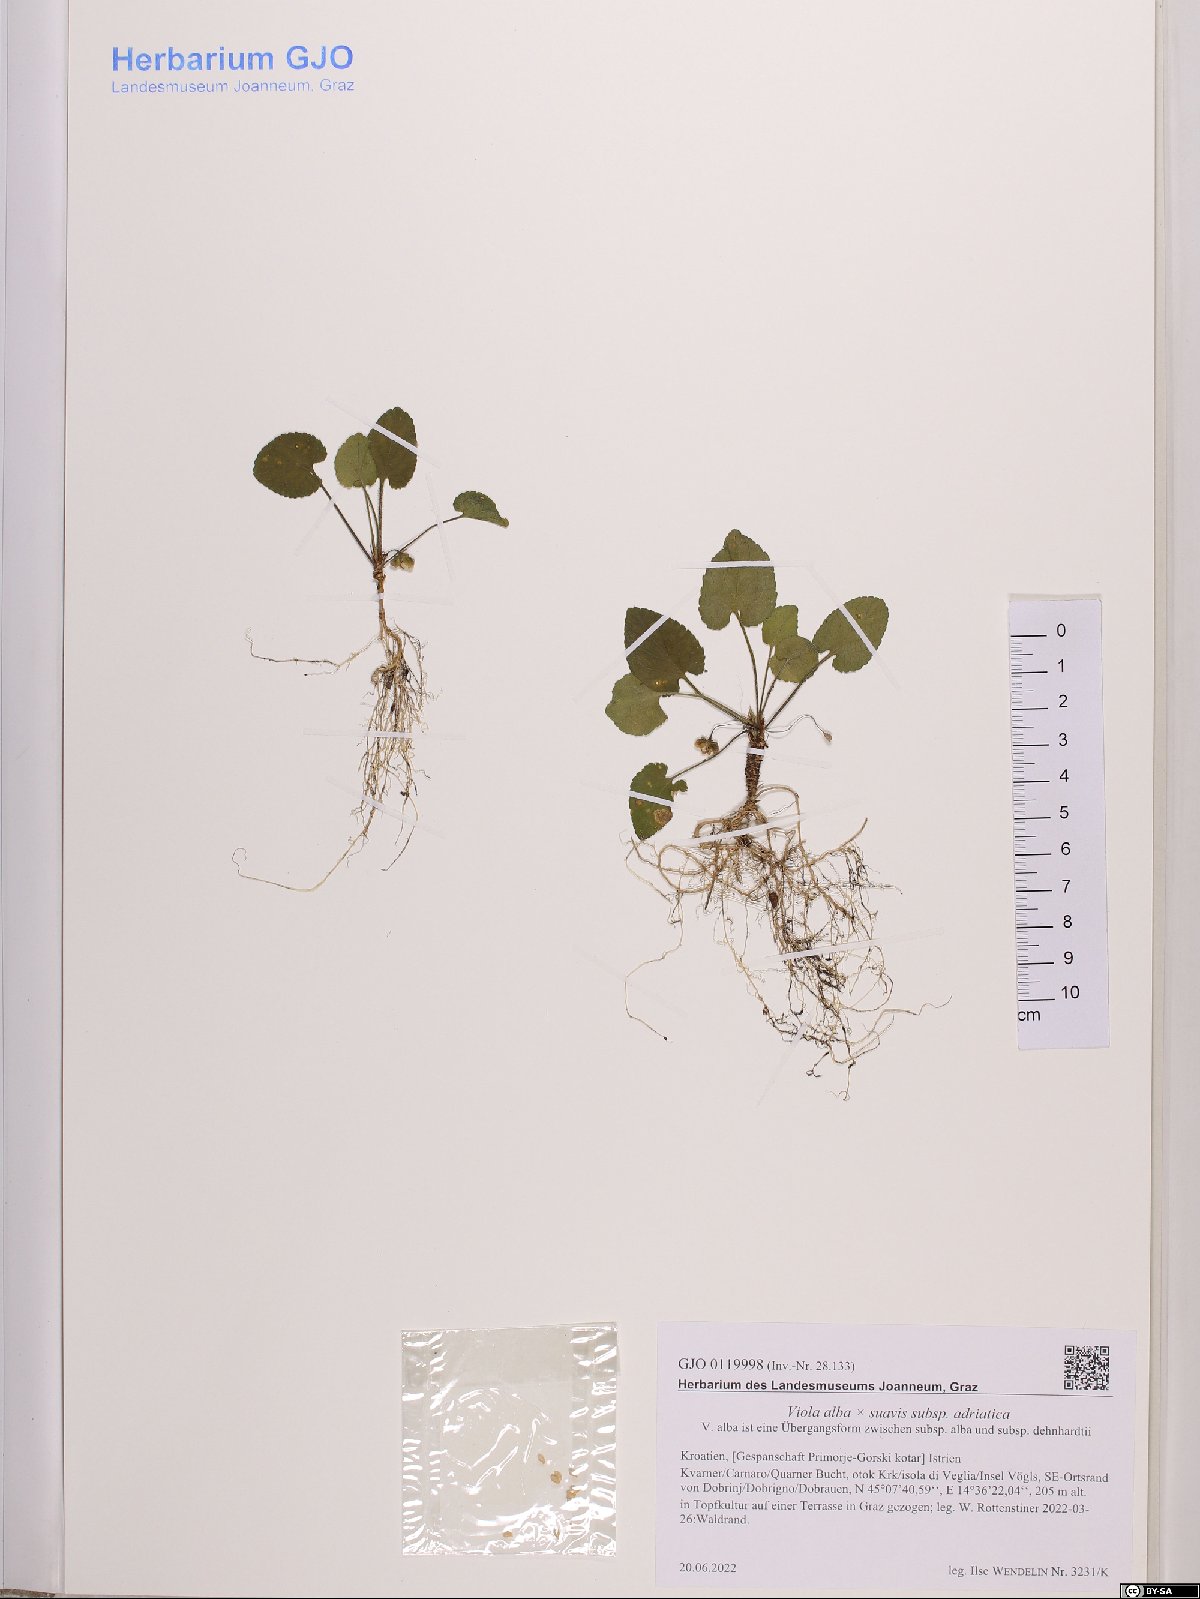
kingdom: Plantae
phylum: Tracheophyta
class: Magnoliopsida
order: Malpighiales
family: Violaceae
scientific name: Violaceae
